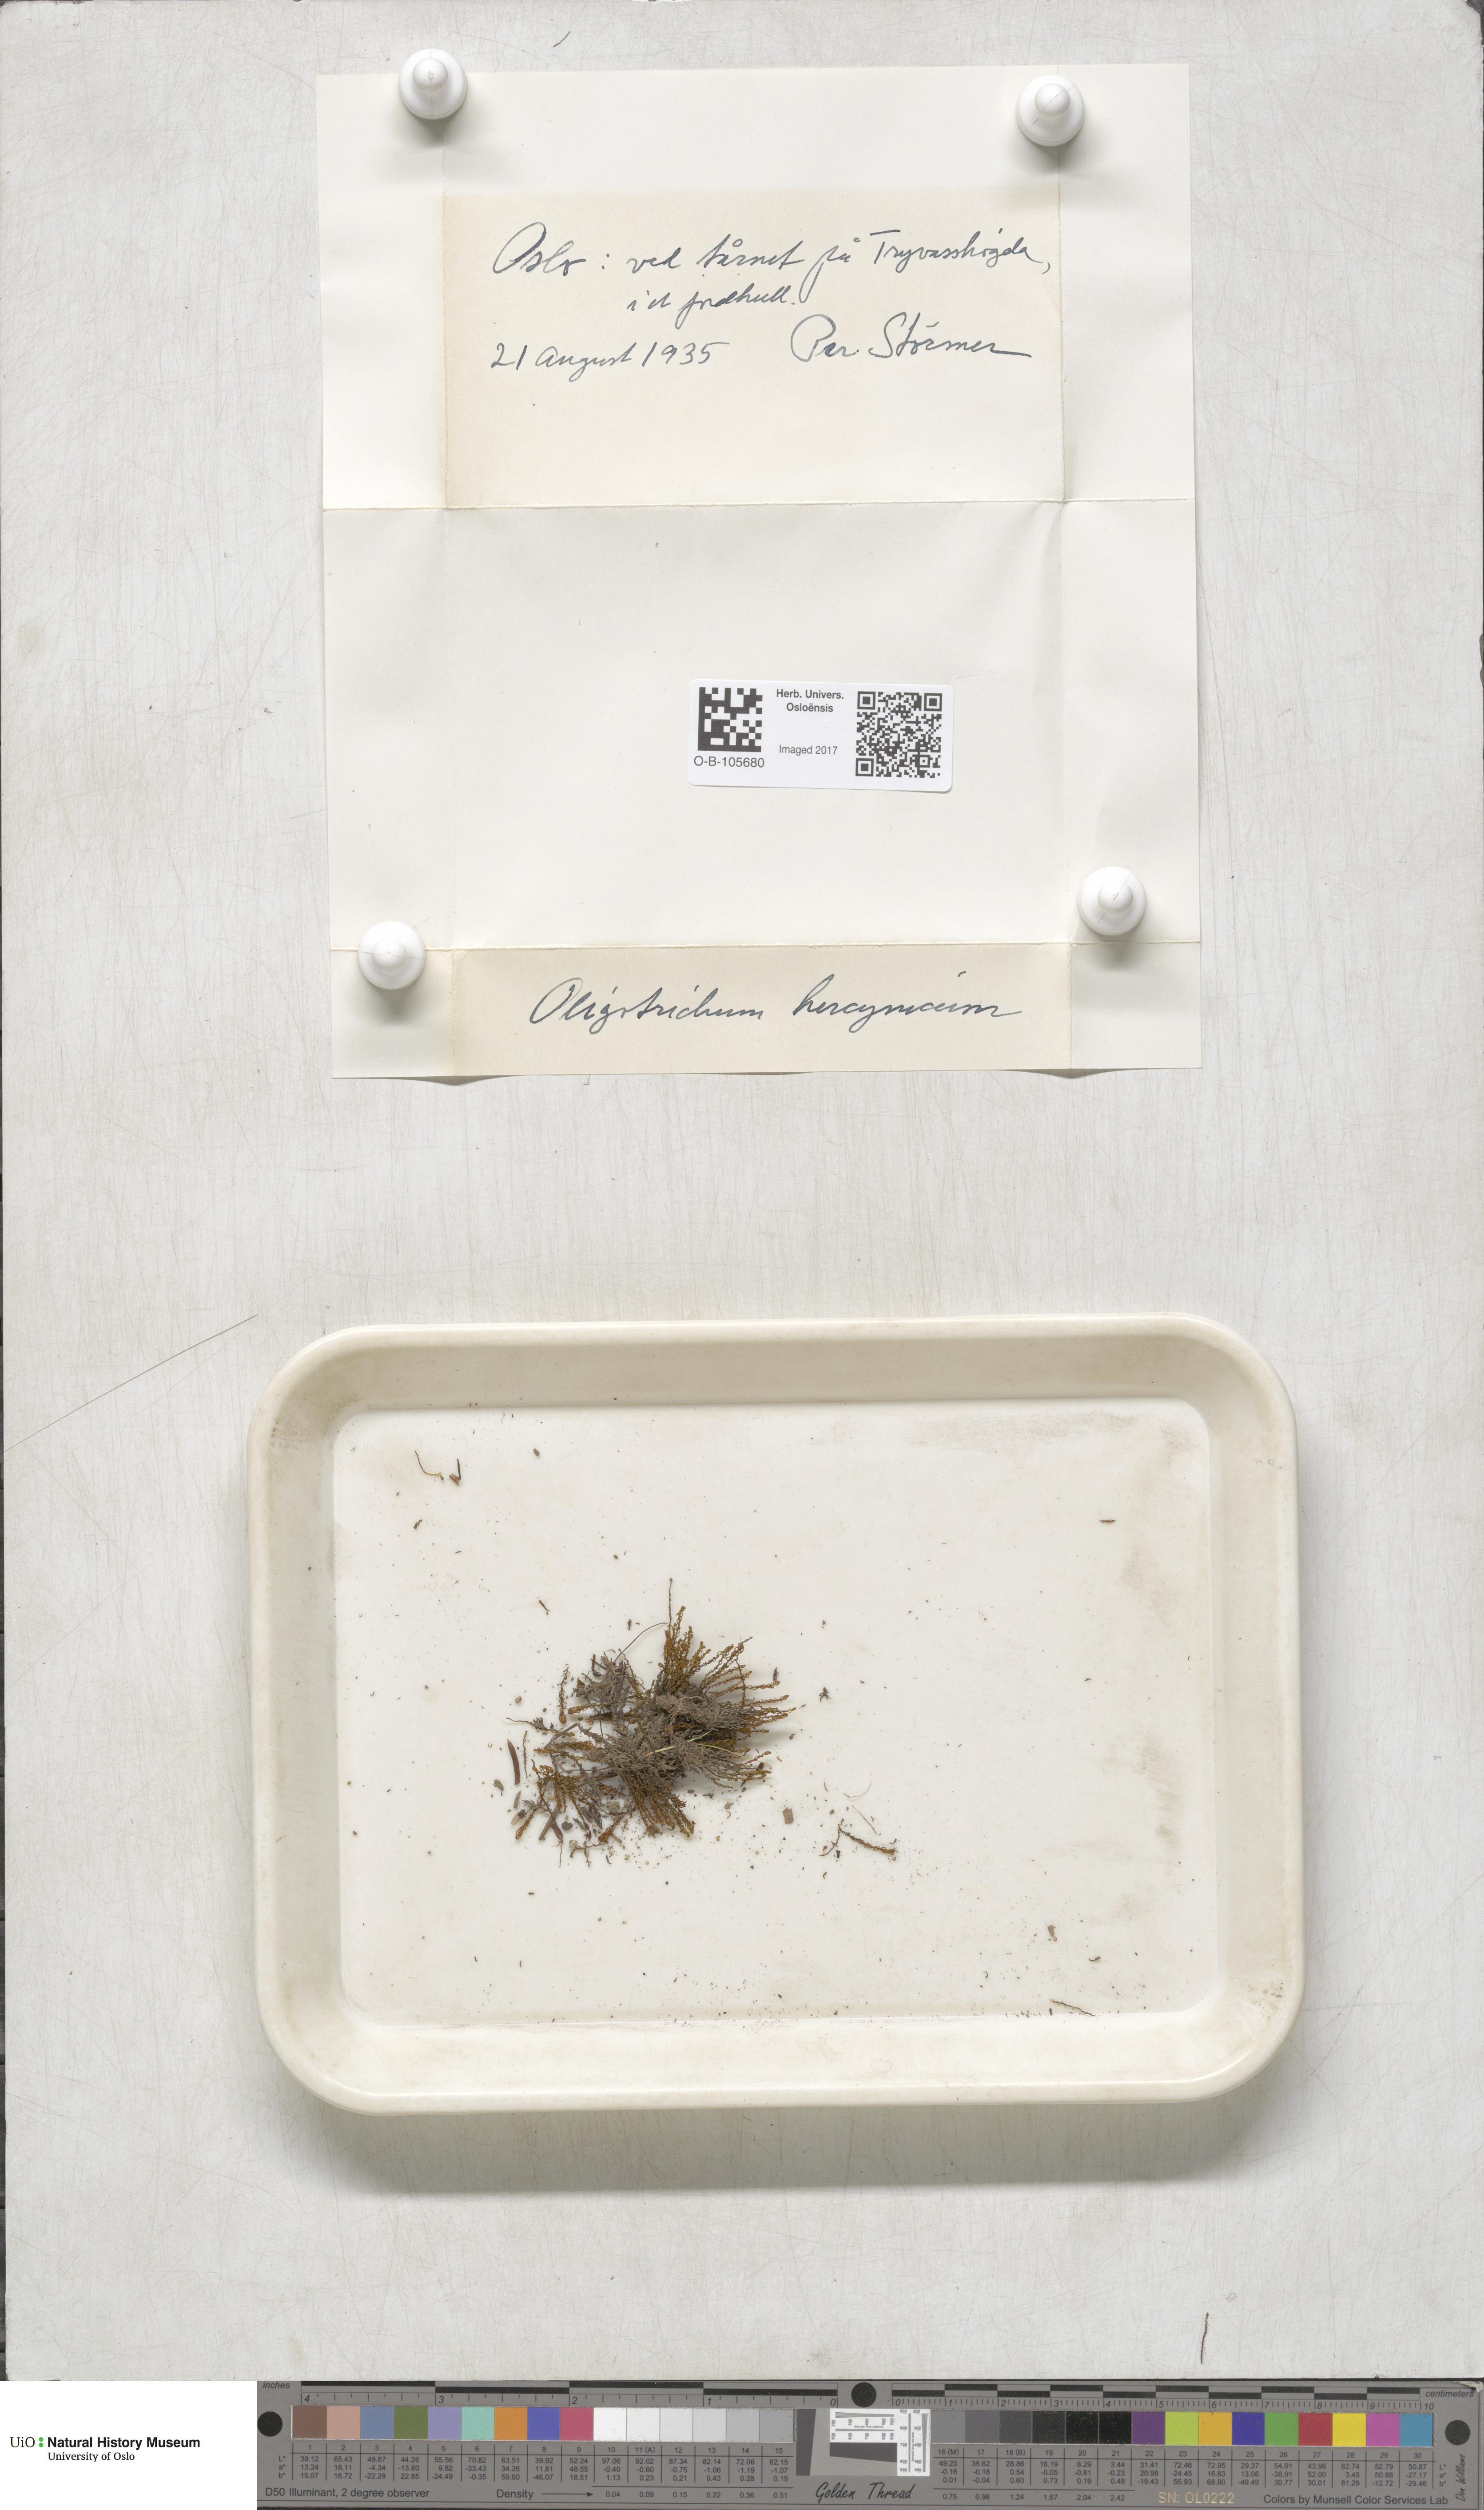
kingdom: Plantae
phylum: Bryophyta
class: Polytrichopsida
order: Polytrichales
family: Polytrichaceae
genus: Oligotrichum
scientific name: Oligotrichum hercynicum
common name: Hercynian hair moss
